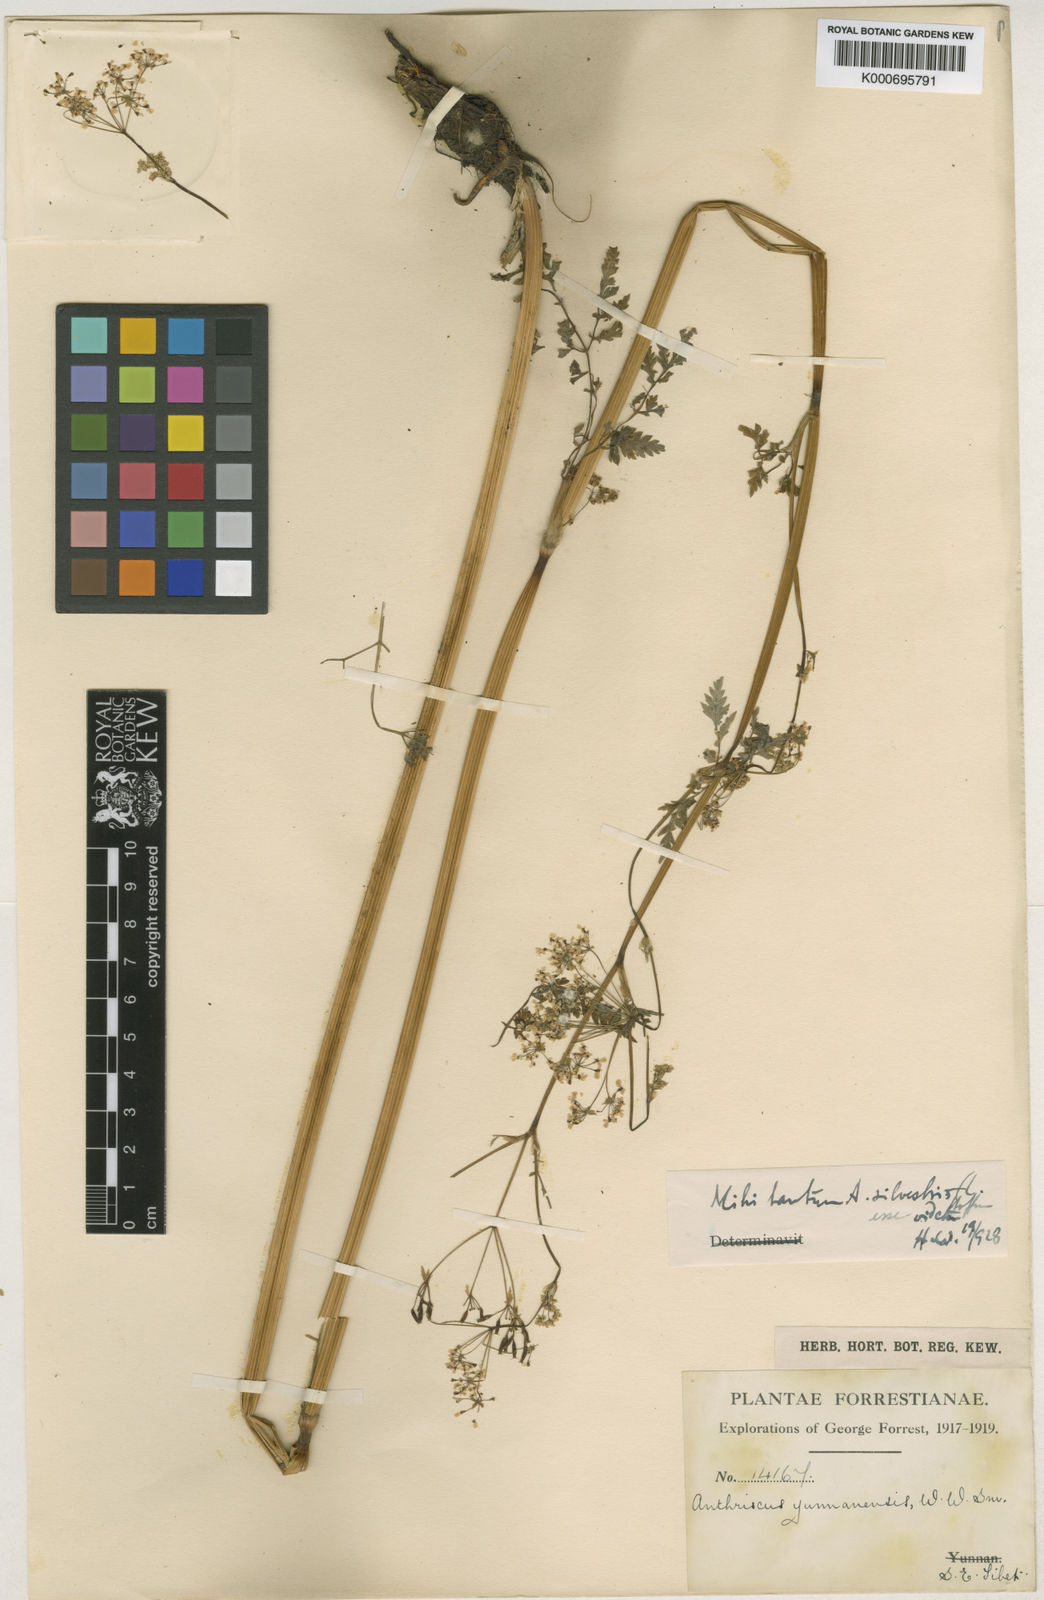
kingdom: Plantae
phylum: Tracheophyta
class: Magnoliopsida
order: Apiales
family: Apiaceae
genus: Anthriscus
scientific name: Anthriscus sylvestris
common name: Cow parsley
